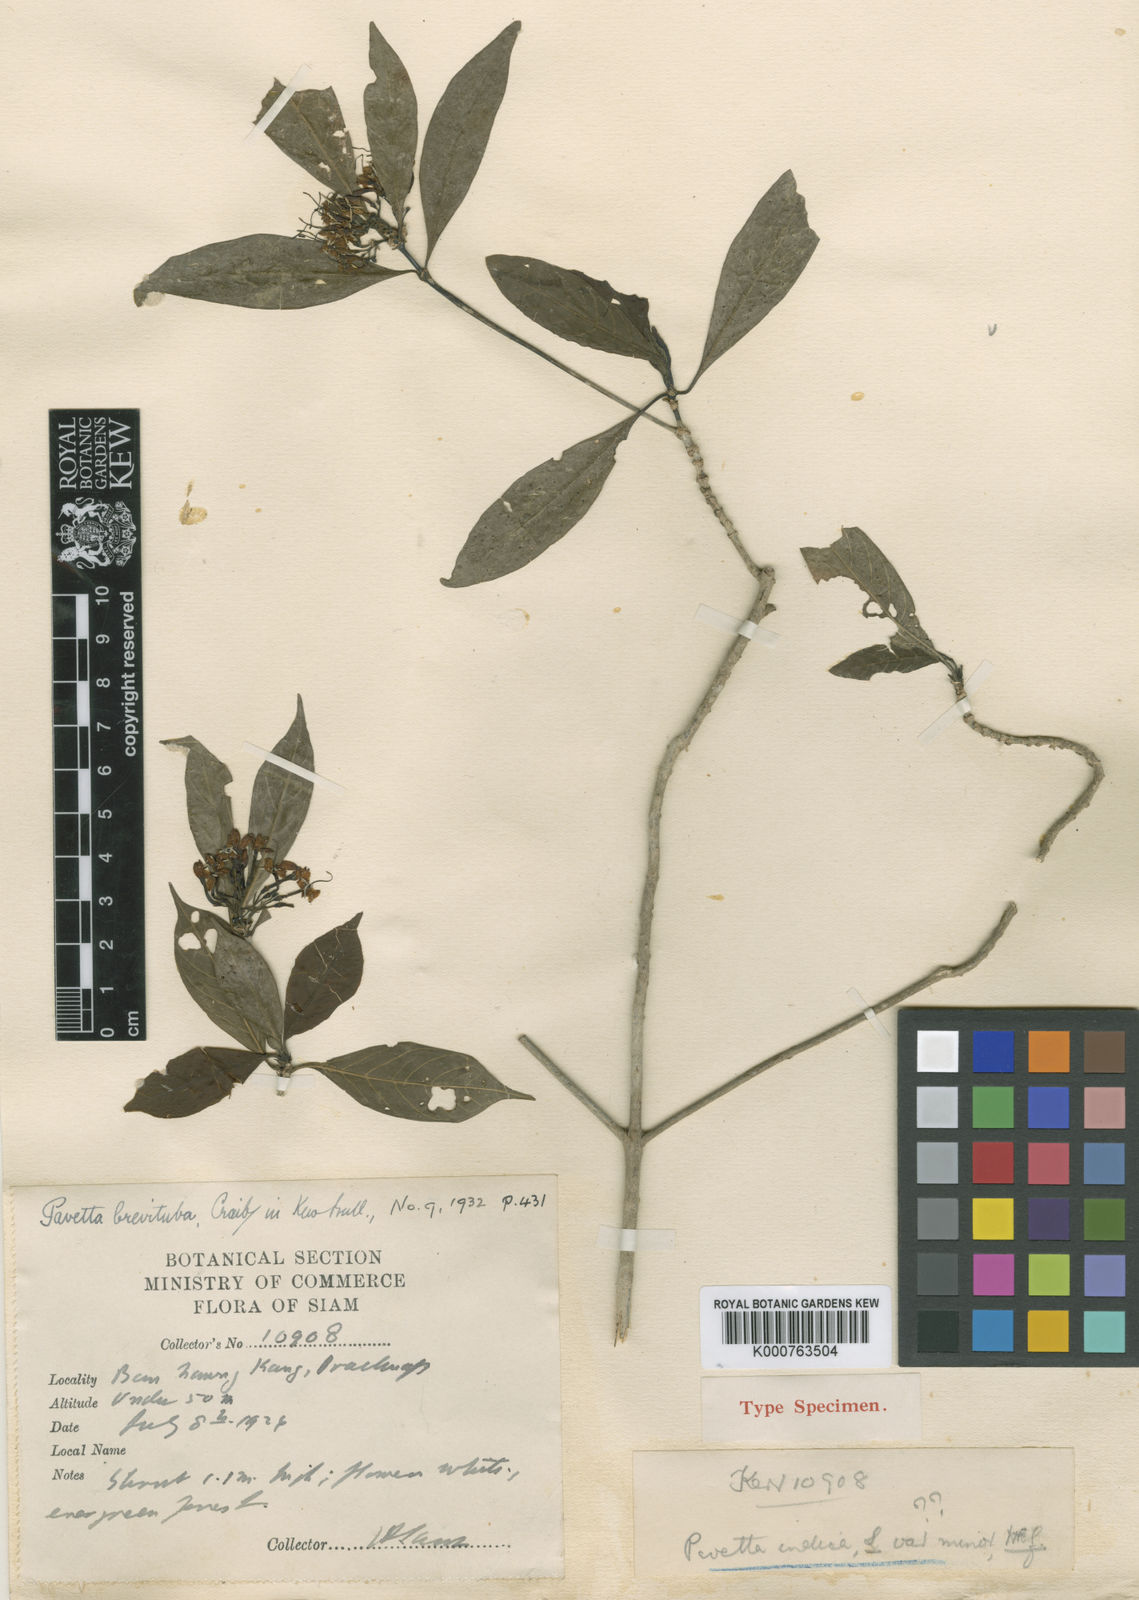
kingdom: Plantae
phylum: Tracheophyta
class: Magnoliopsida
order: Gentianales
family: Rubiaceae
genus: Pavetta
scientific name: Pavetta brevituba
